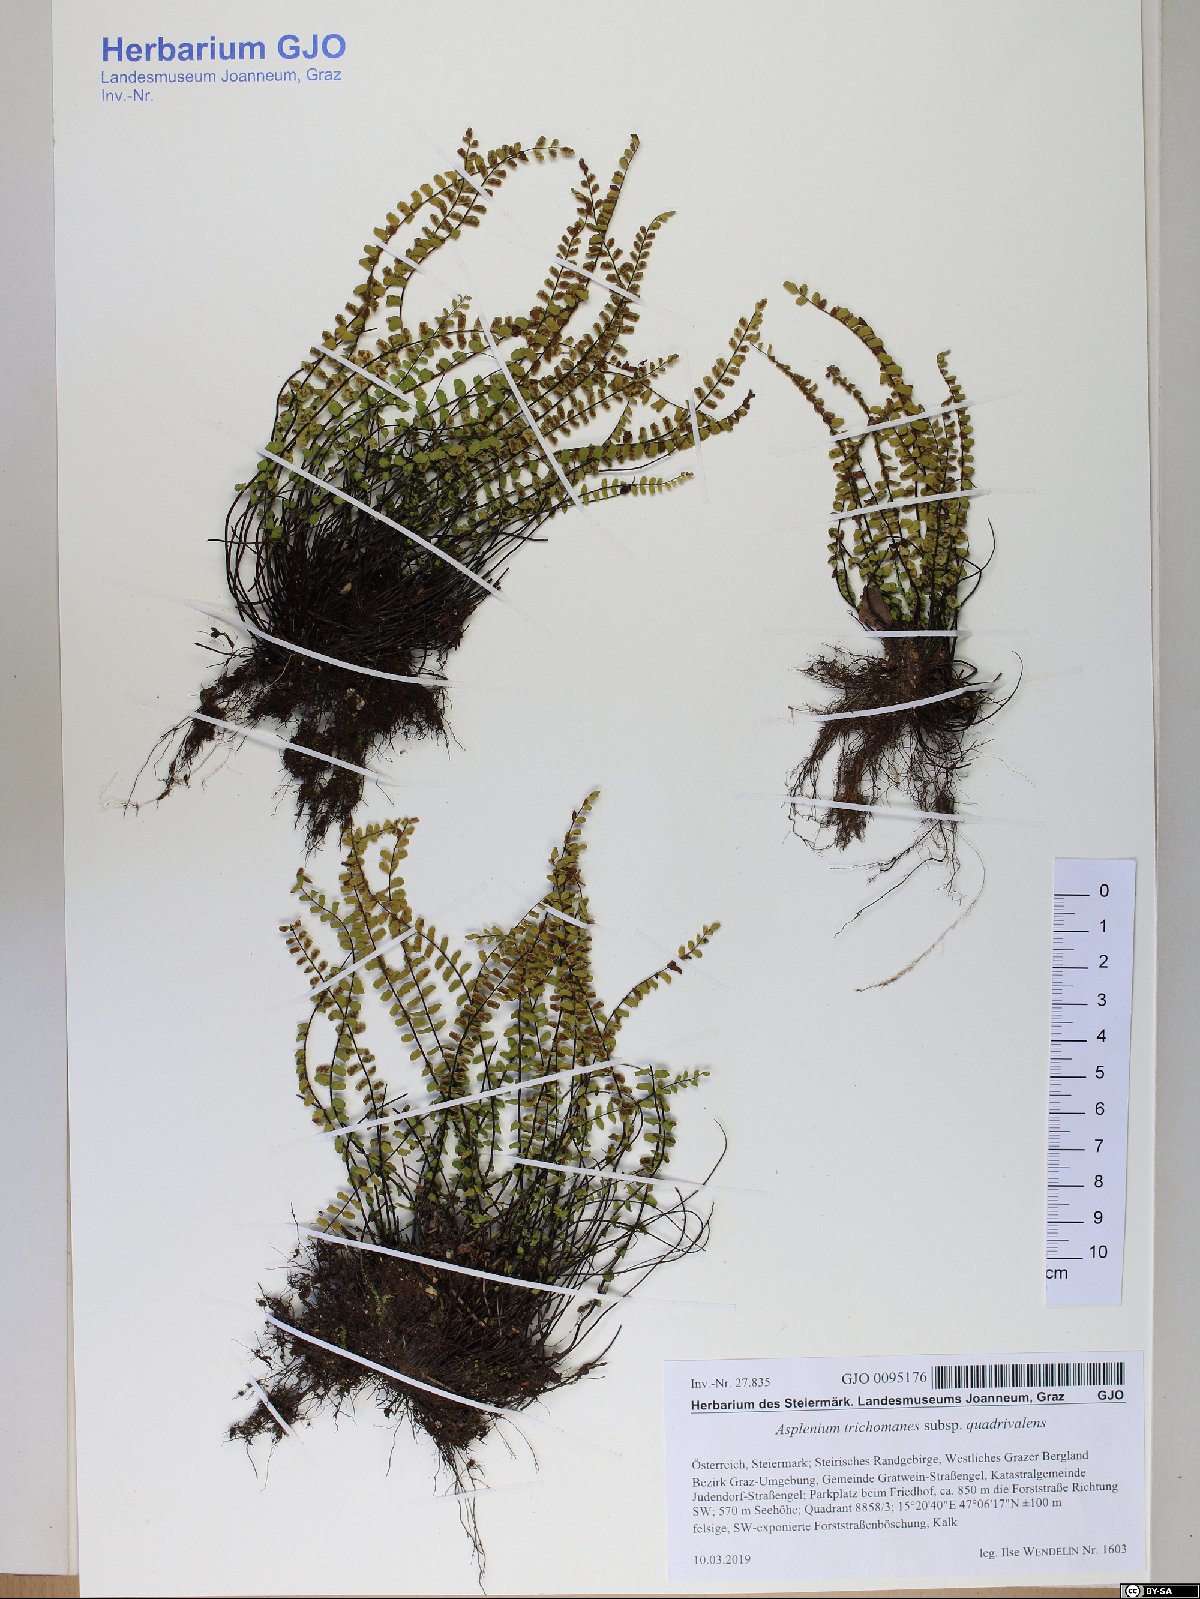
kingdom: Plantae
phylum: Tracheophyta
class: Polypodiopsida
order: Polypodiales
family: Aspleniaceae
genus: Asplenium
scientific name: Asplenium quadrivalens
